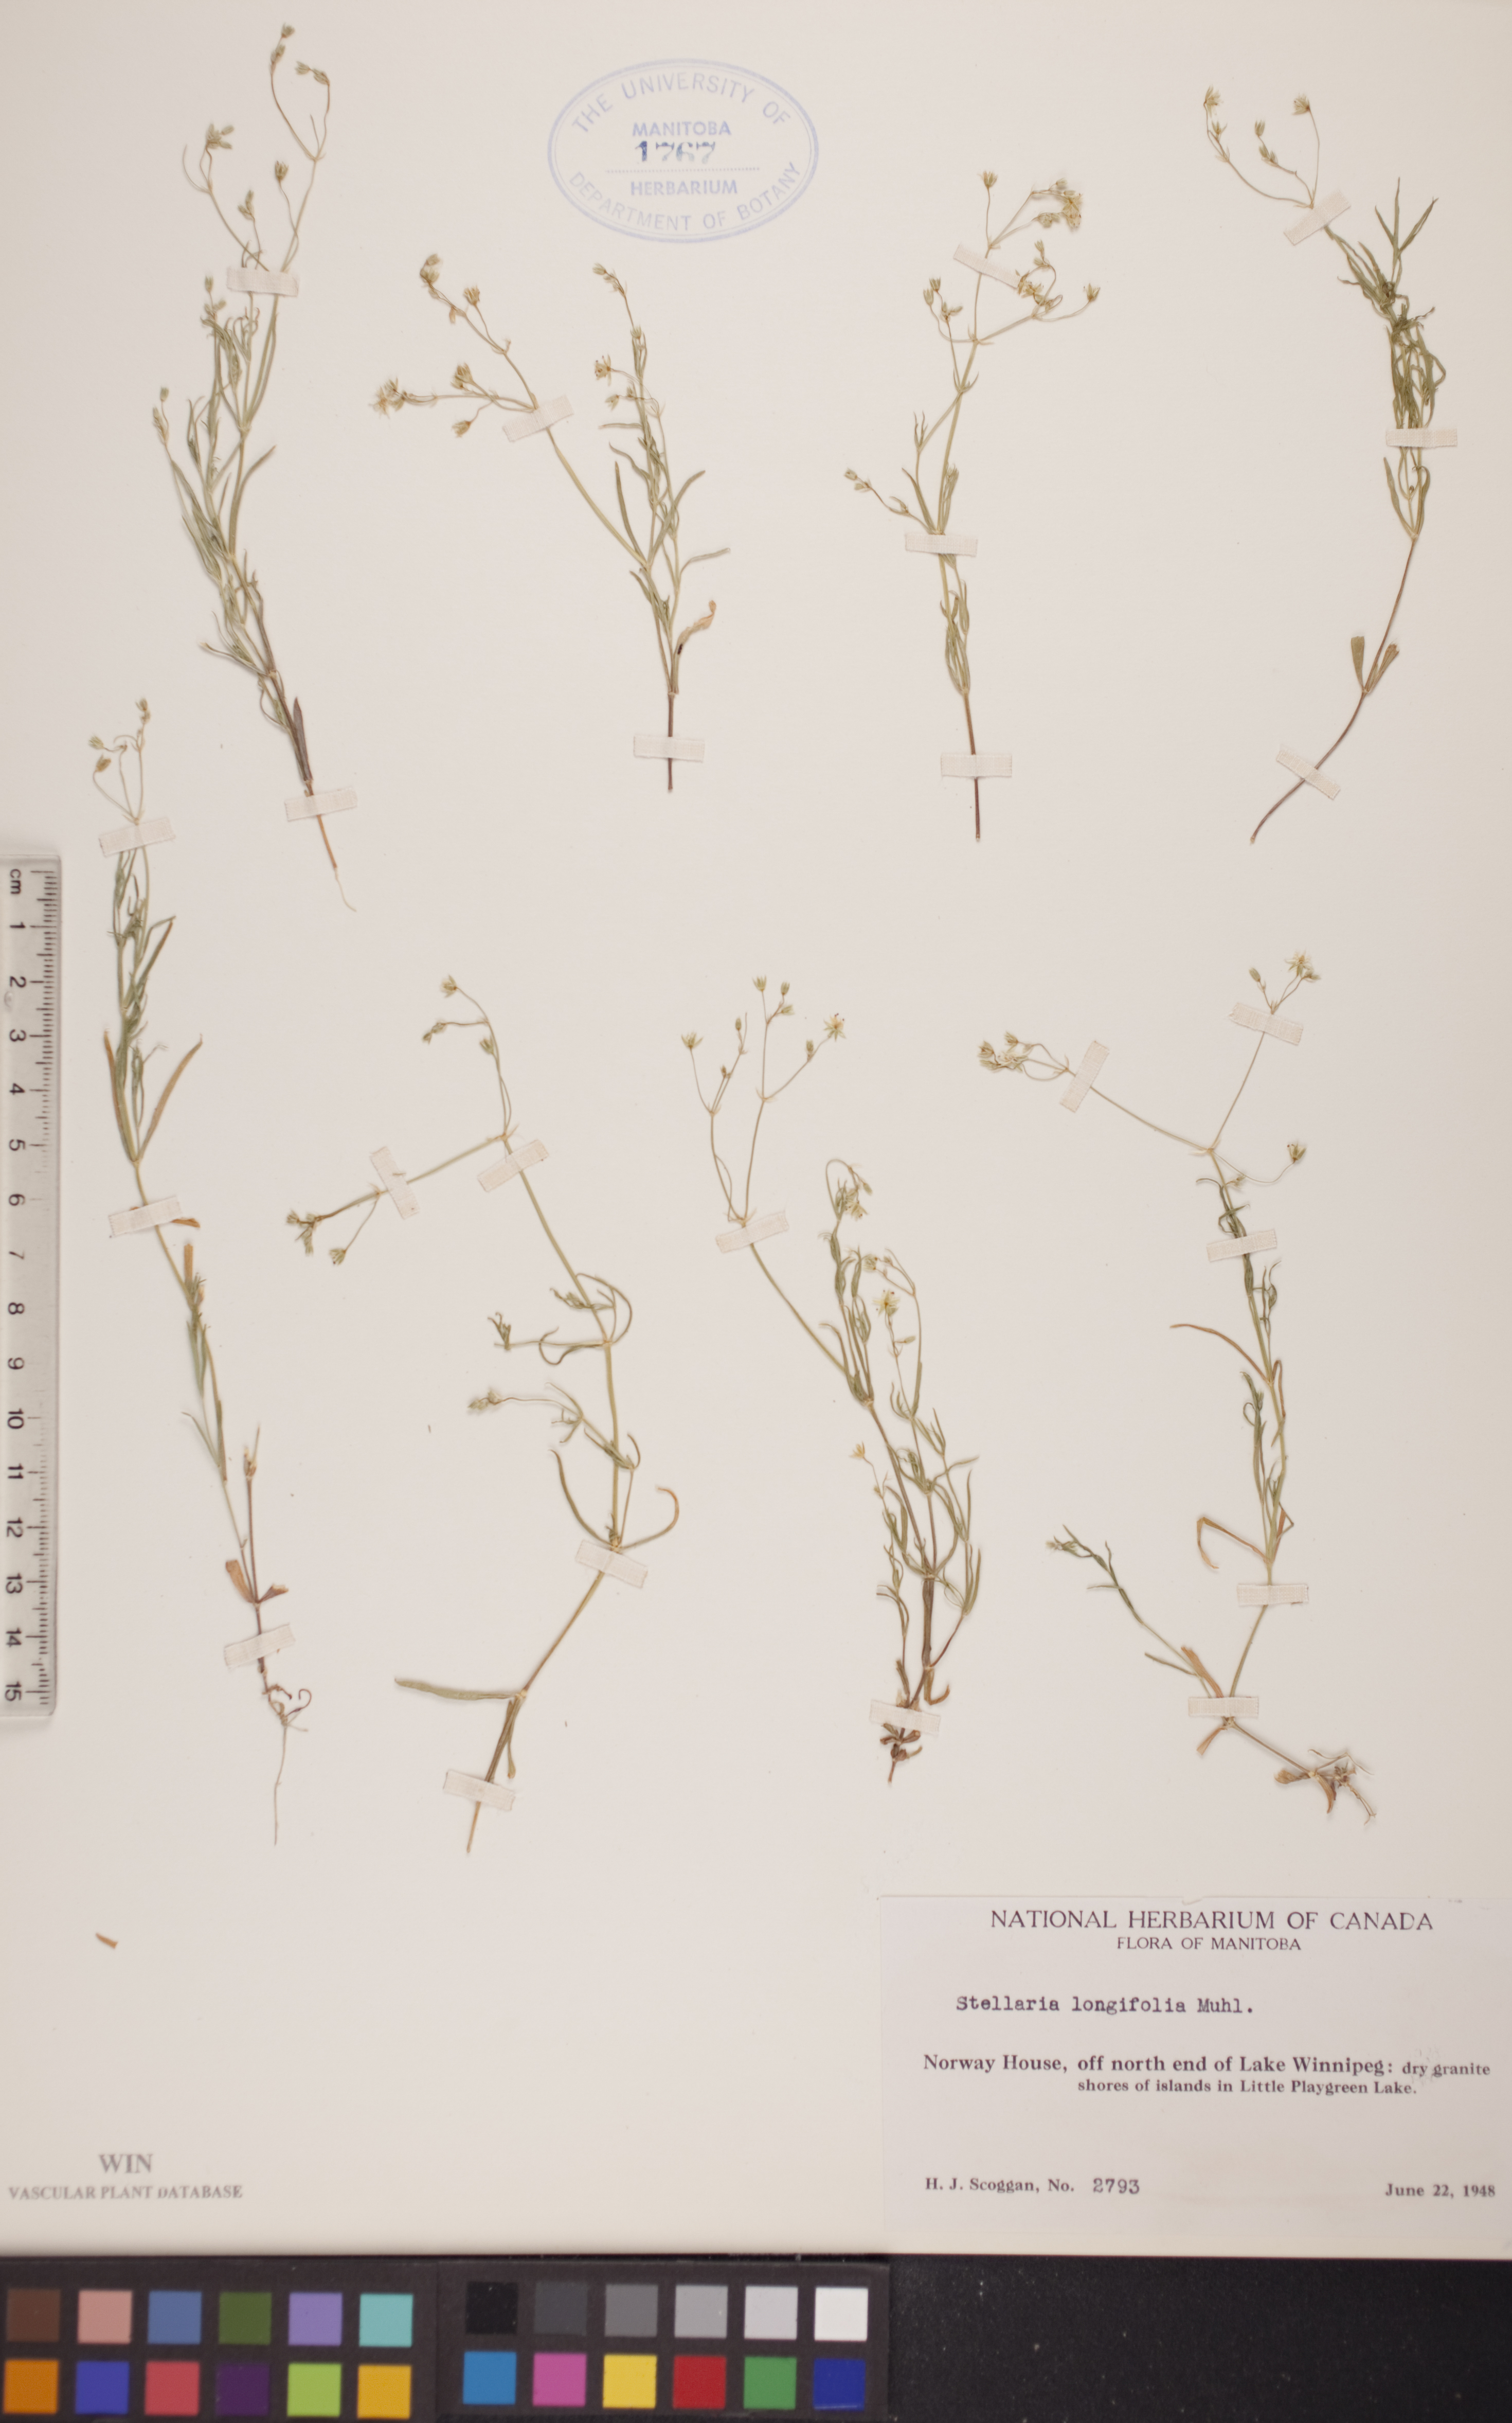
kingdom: Plantae
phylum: Tracheophyta
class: Magnoliopsida
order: Caryophyllales
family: Caryophyllaceae
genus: Stellaria
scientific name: Stellaria longifolia
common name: Long-leaved chickweed
